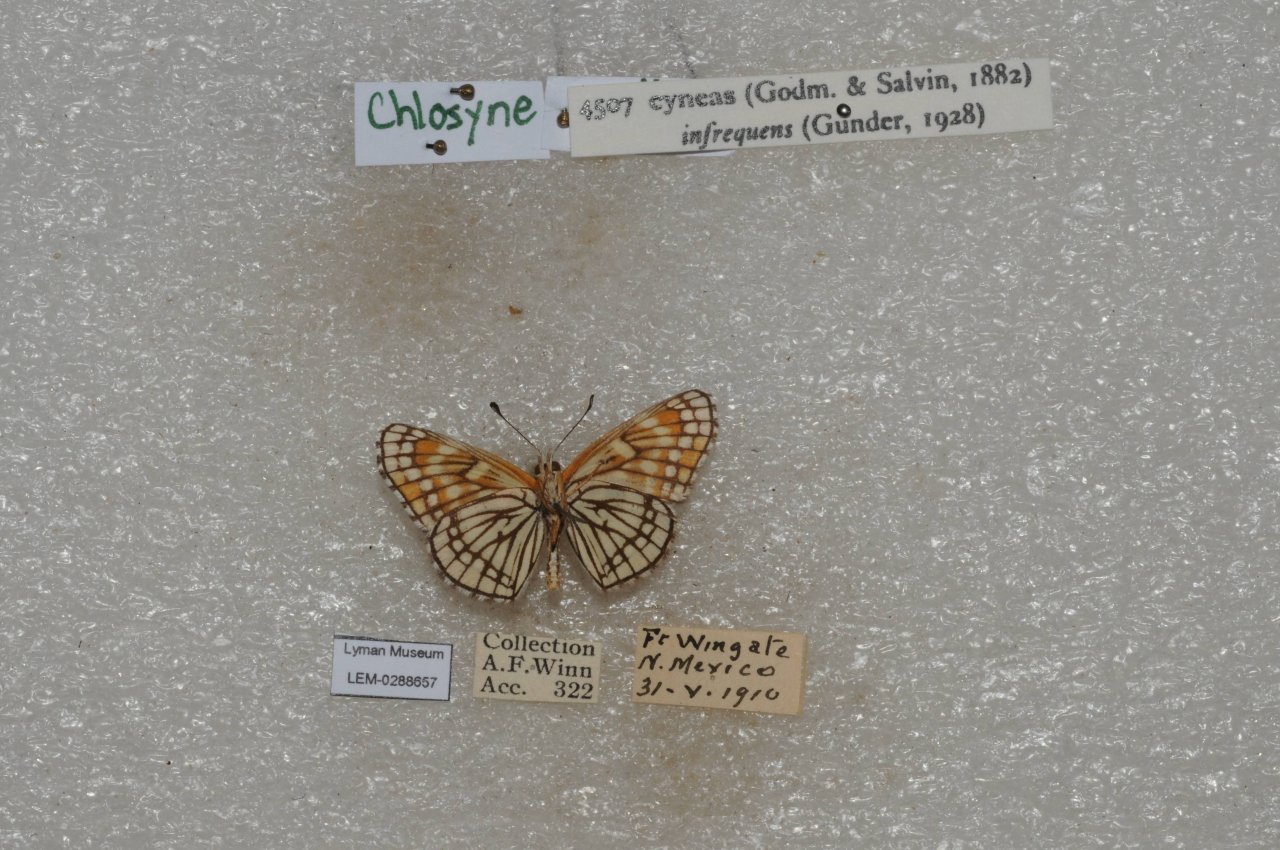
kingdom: Animalia
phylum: Arthropoda
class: Insecta
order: Lepidoptera
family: Nymphalidae
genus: Thessalia
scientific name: Thessalia leanira
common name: Fulvia Checkerspot
